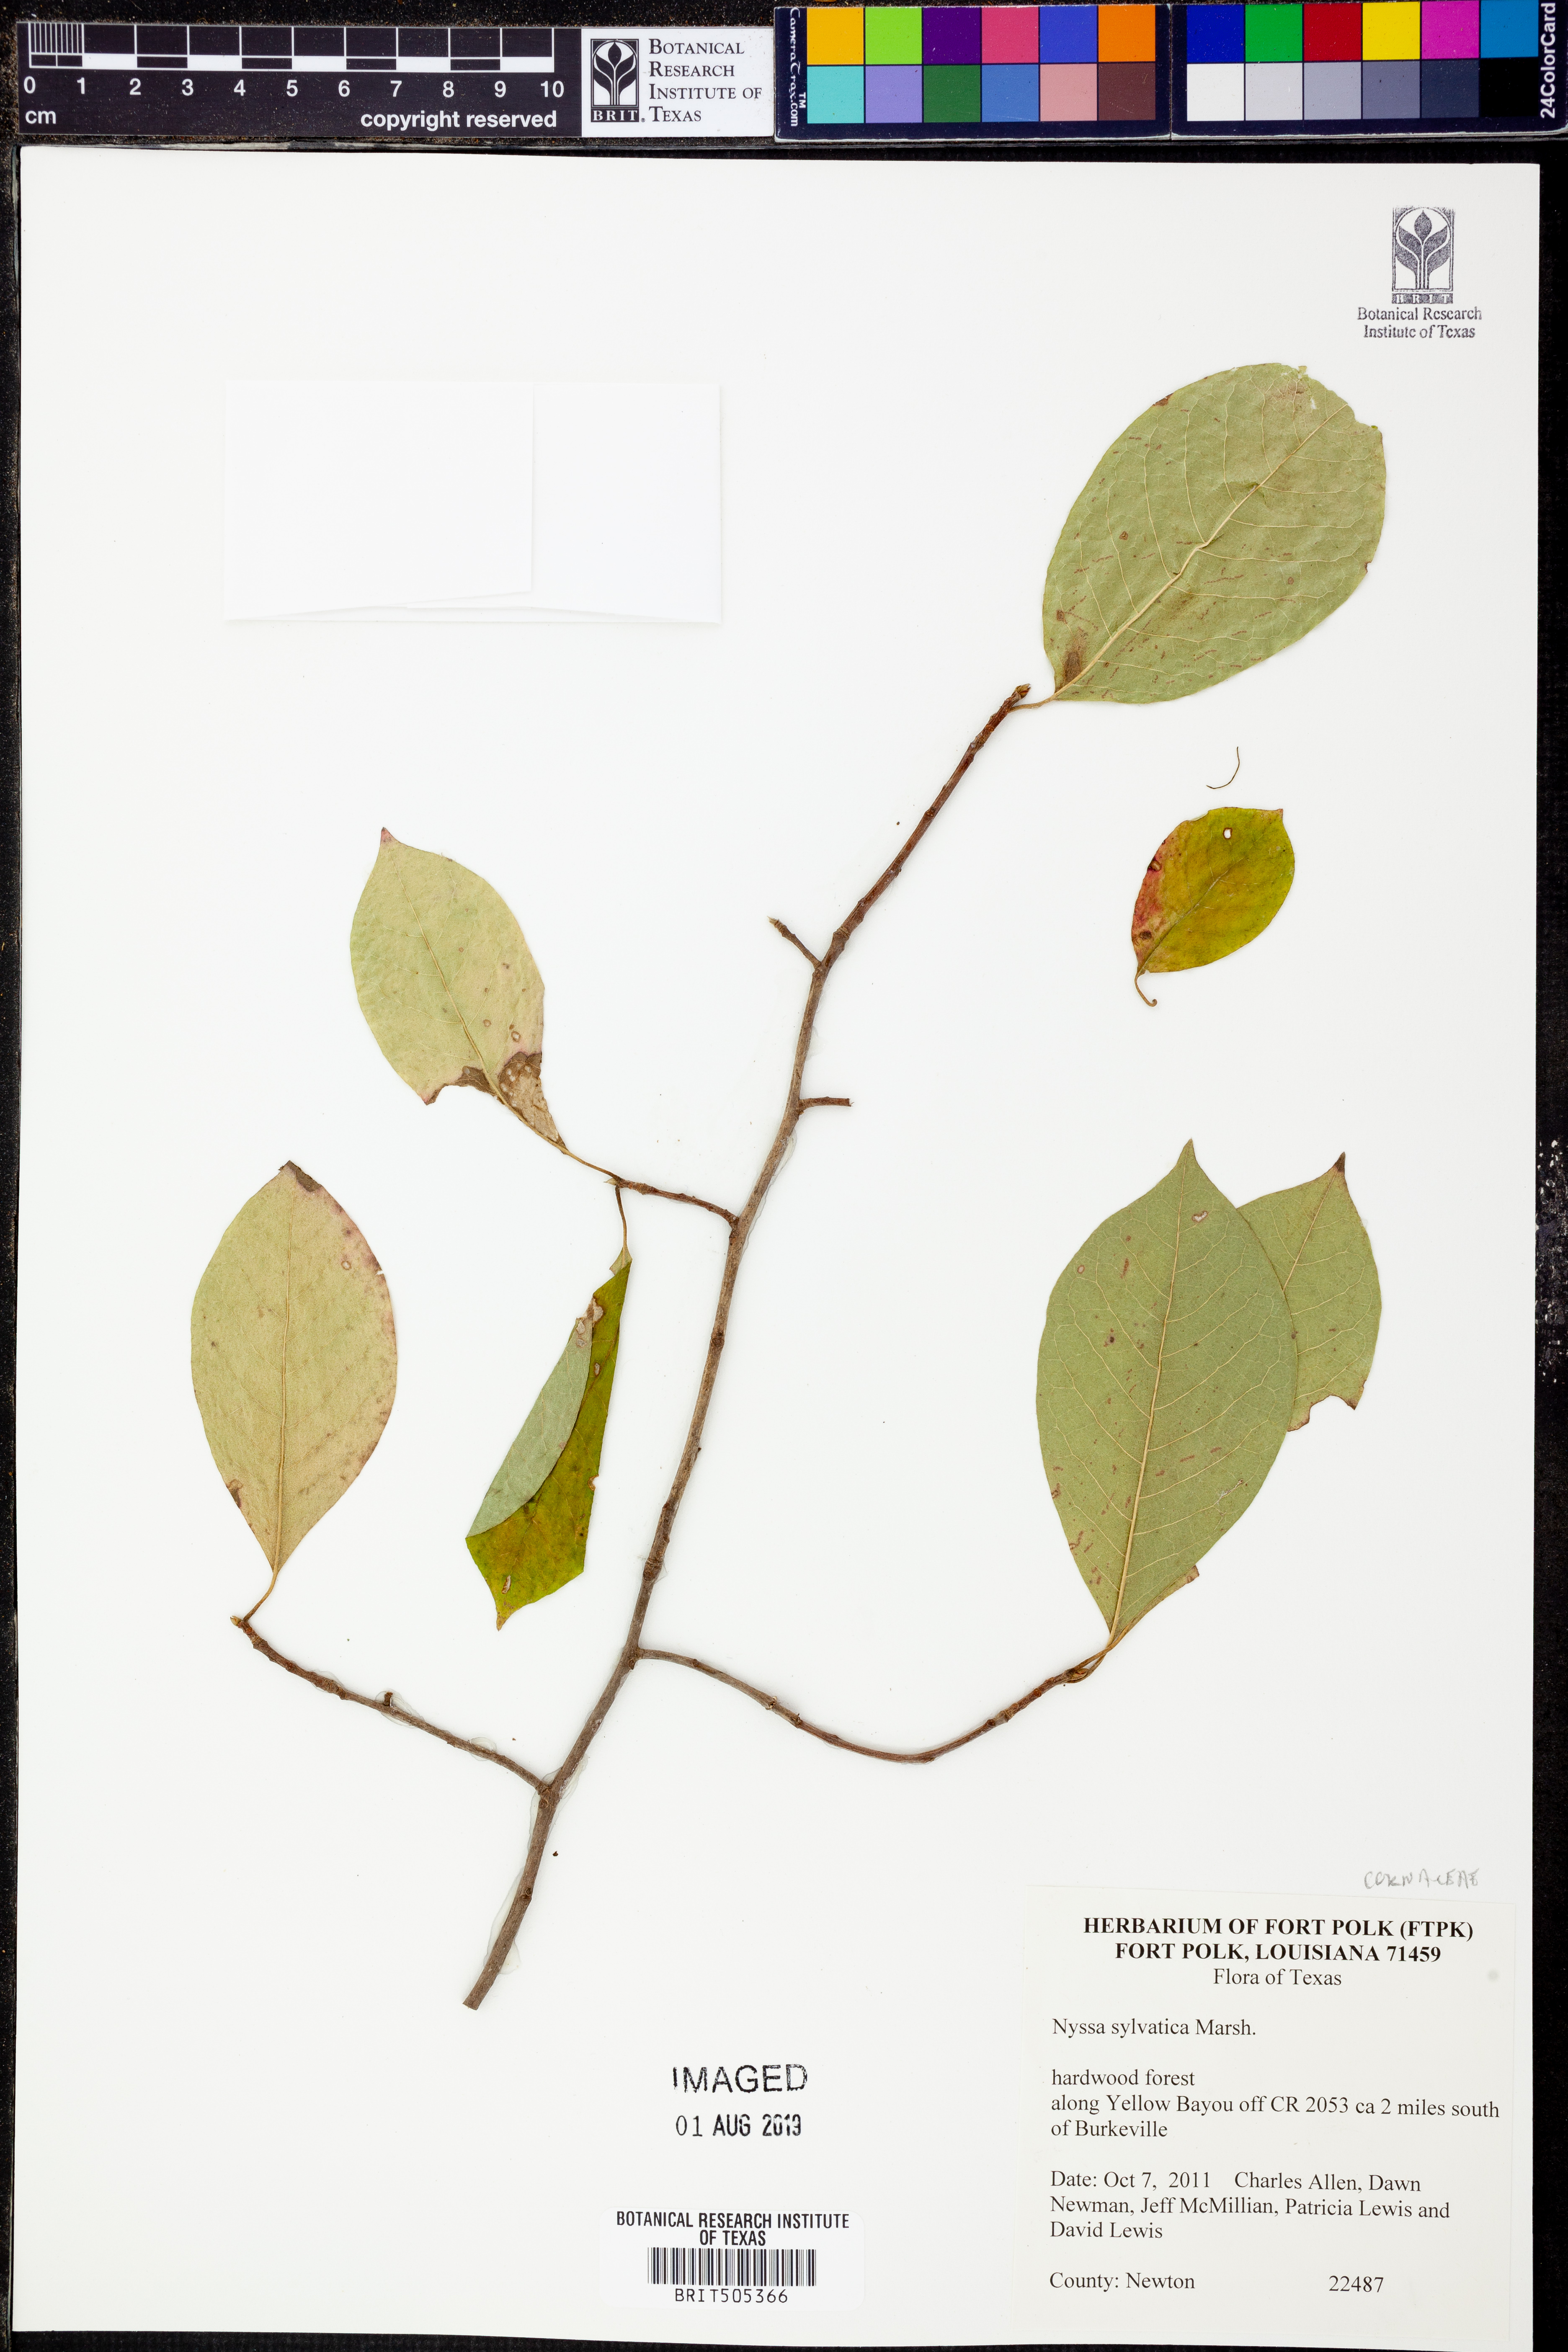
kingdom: Plantae
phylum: Tracheophyta
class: Magnoliopsida
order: Cornales
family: Nyssaceae
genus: Nyssa
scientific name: Nyssa sylvatica
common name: Black tupelo
